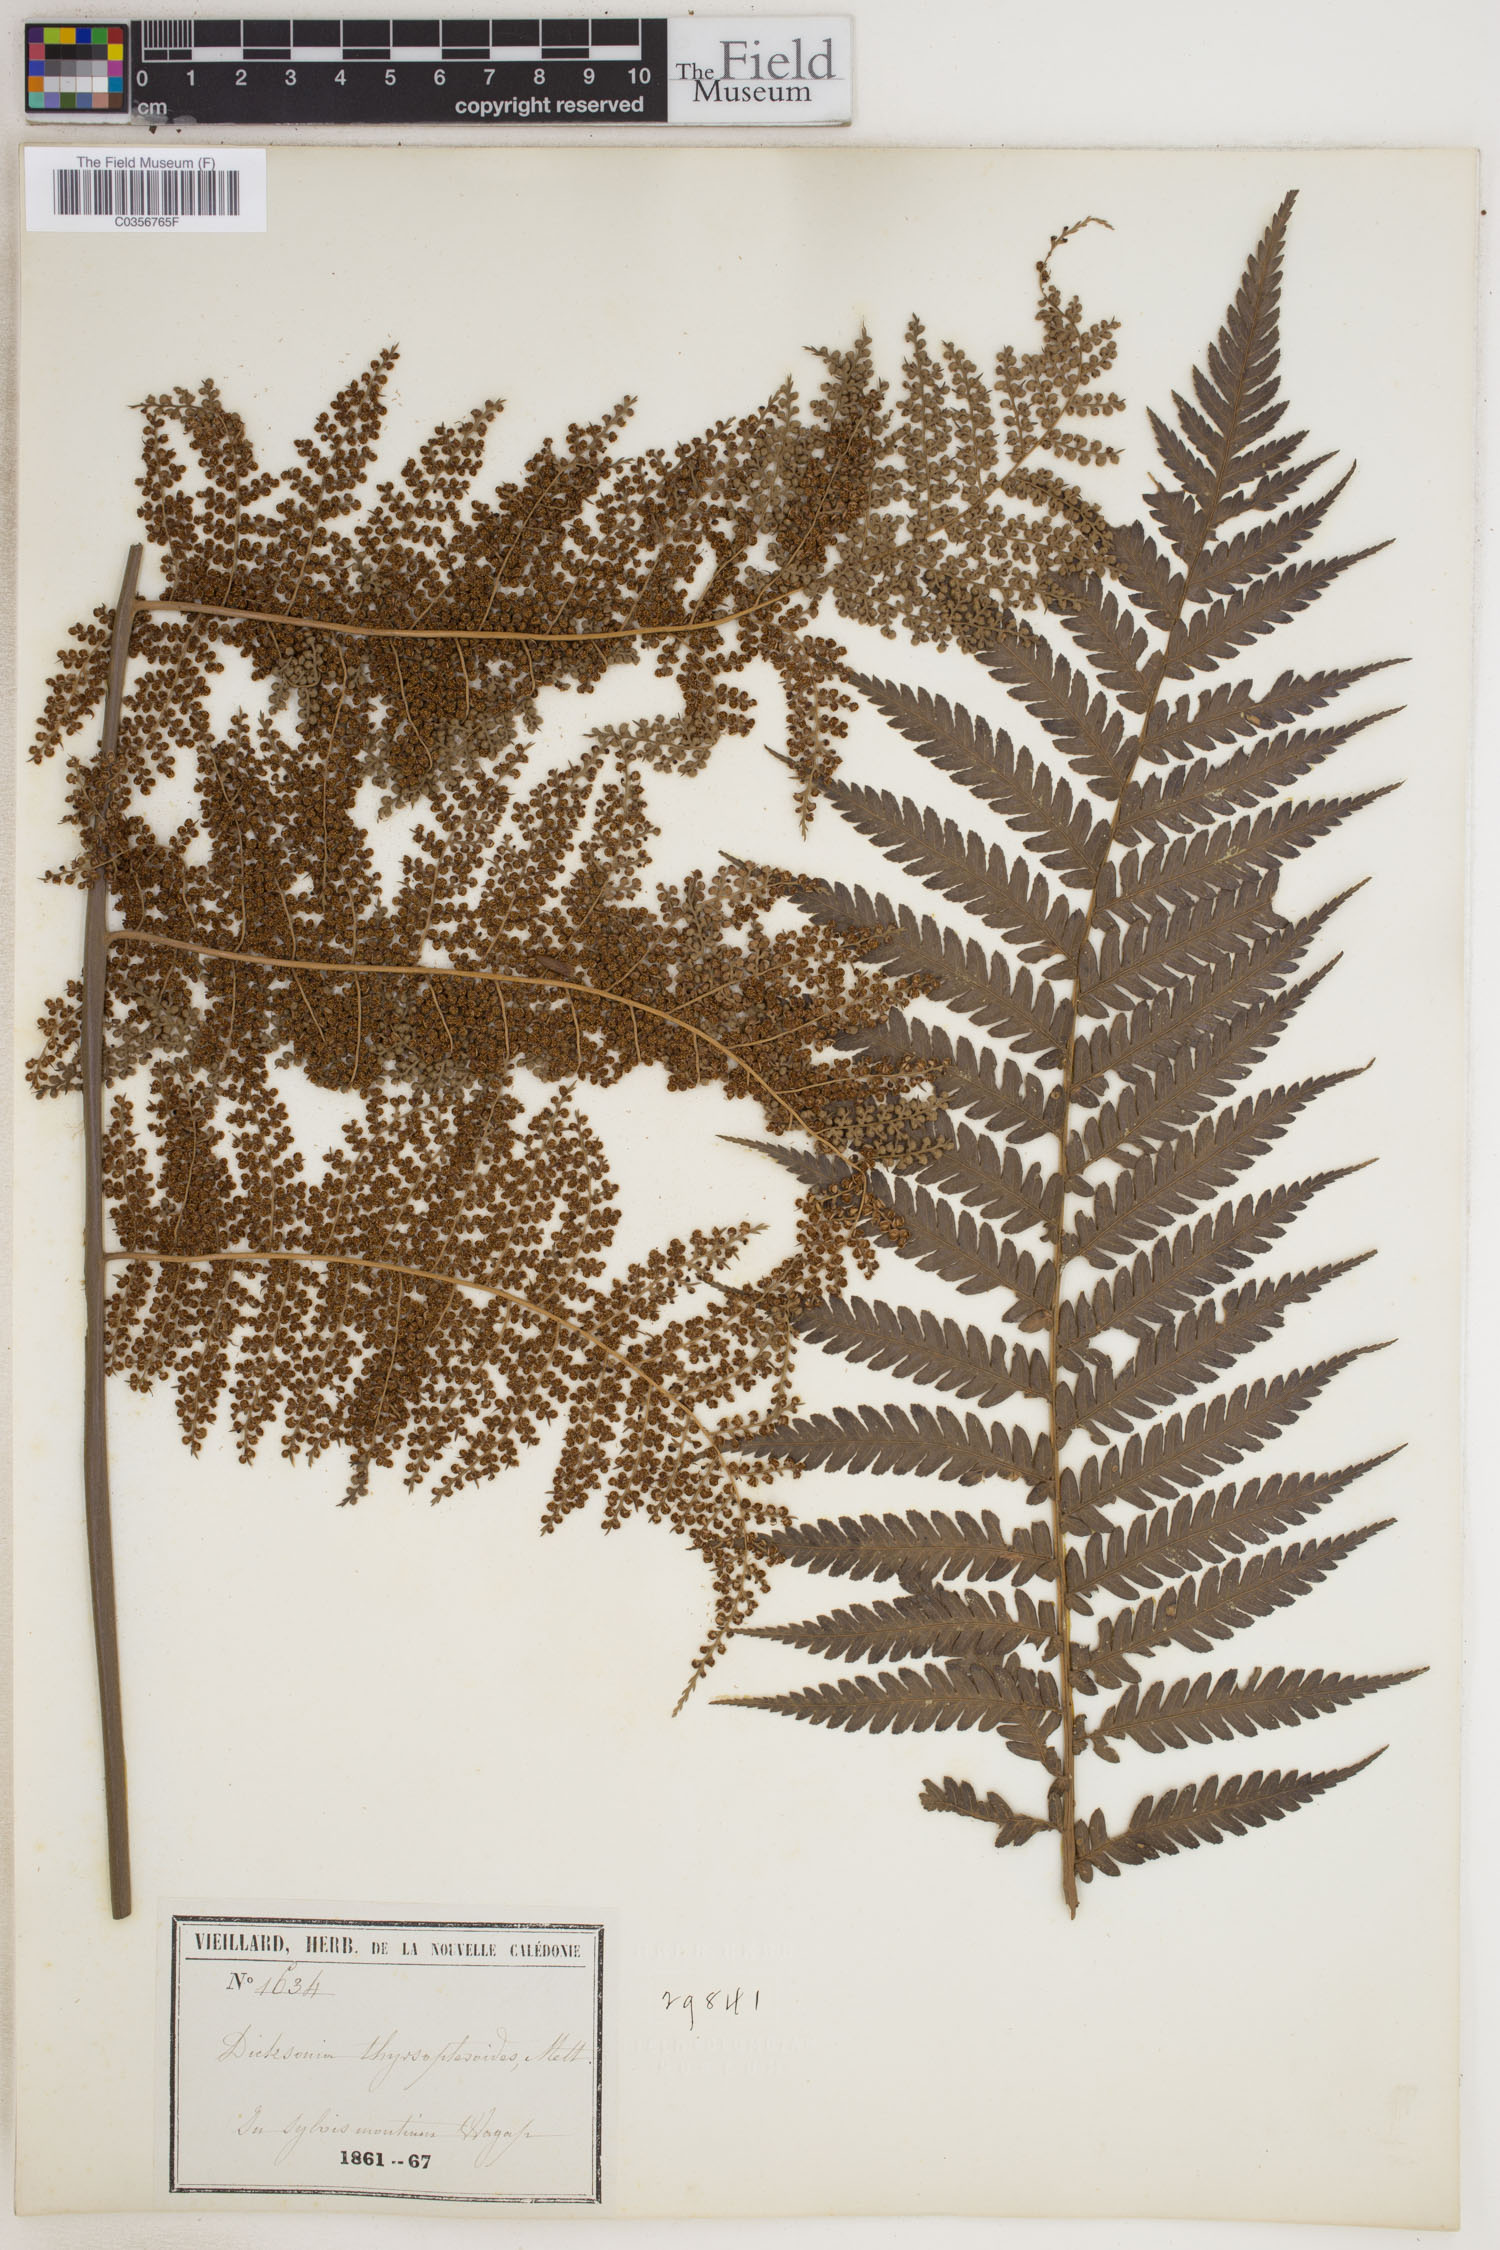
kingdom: Plantae
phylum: Tracheophyta
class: Polypodiopsida
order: Cyatheales
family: Dicksoniaceae
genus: Dicksonia
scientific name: Dicksonia thyrsopteroides
